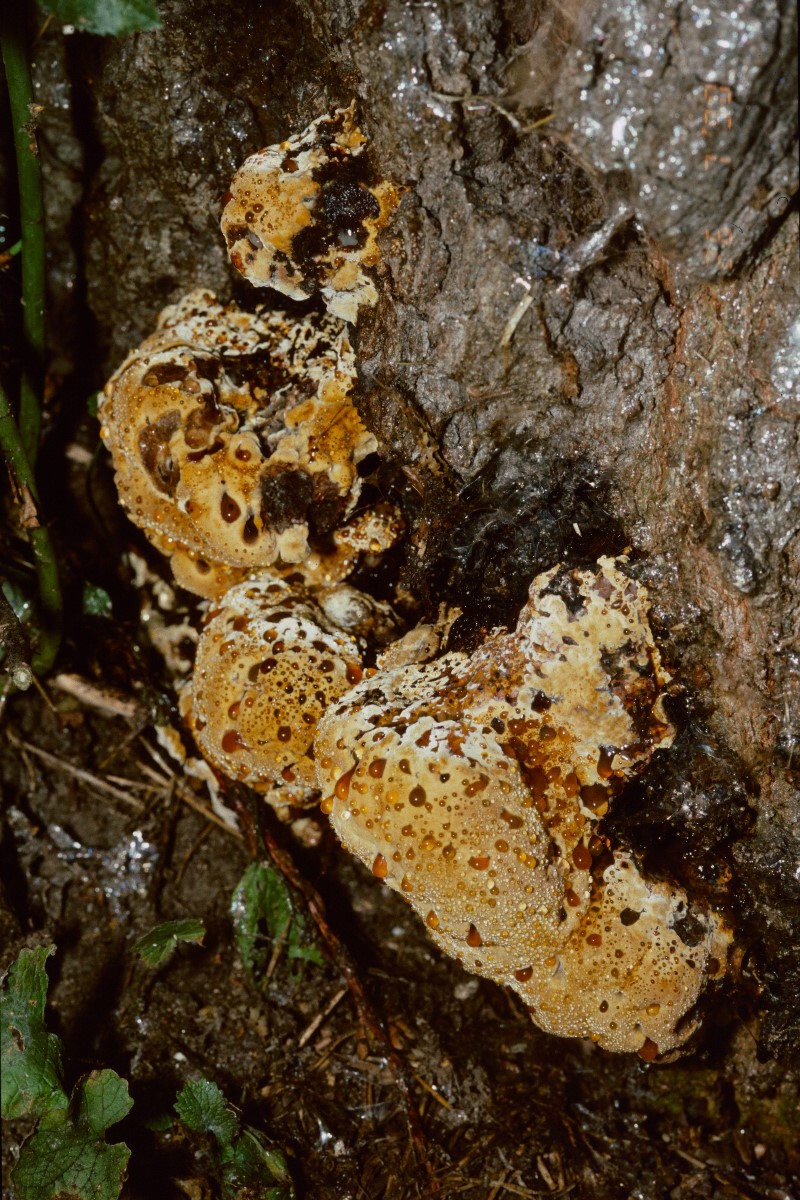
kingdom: Fungi
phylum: Basidiomycota
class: Agaricomycetes
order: Hymenochaetales
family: Hymenochaetaceae
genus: Pseudoinonotus
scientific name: Pseudoinonotus dryadeus
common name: ege-spejlporesvamp
